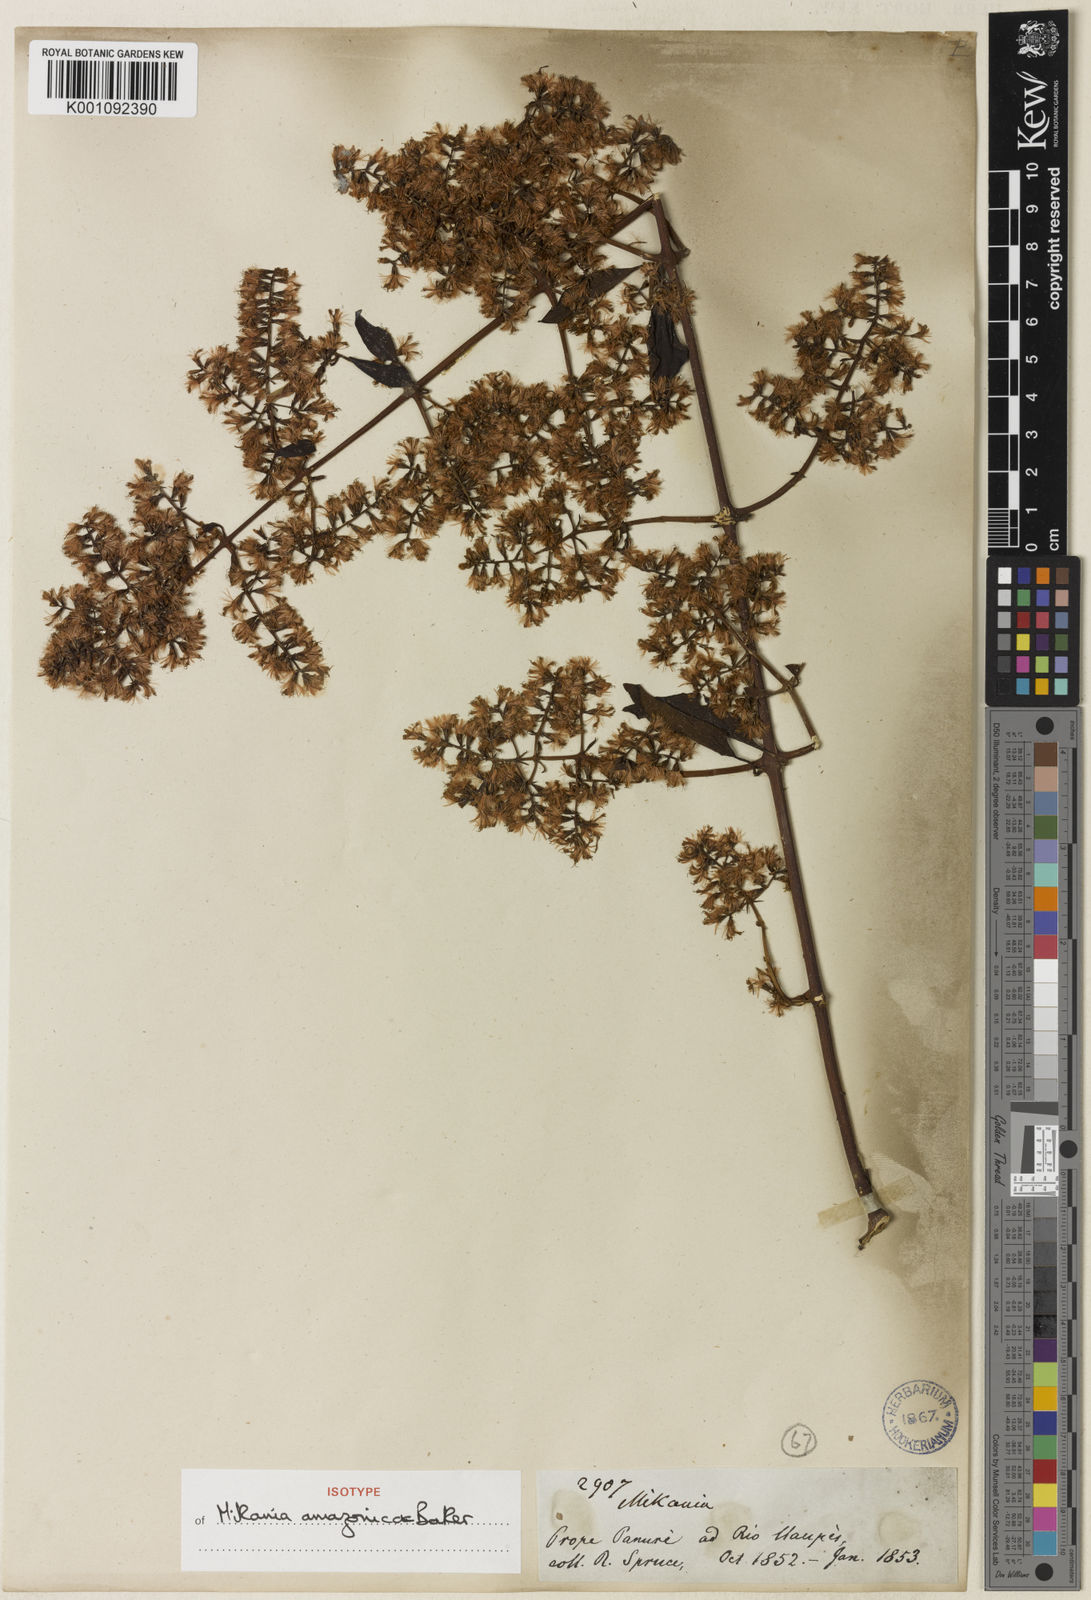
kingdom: Plantae
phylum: Tracheophyta
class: Magnoliopsida
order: Asterales
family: Asteraceae
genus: Mikania
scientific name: Mikania sprucei
